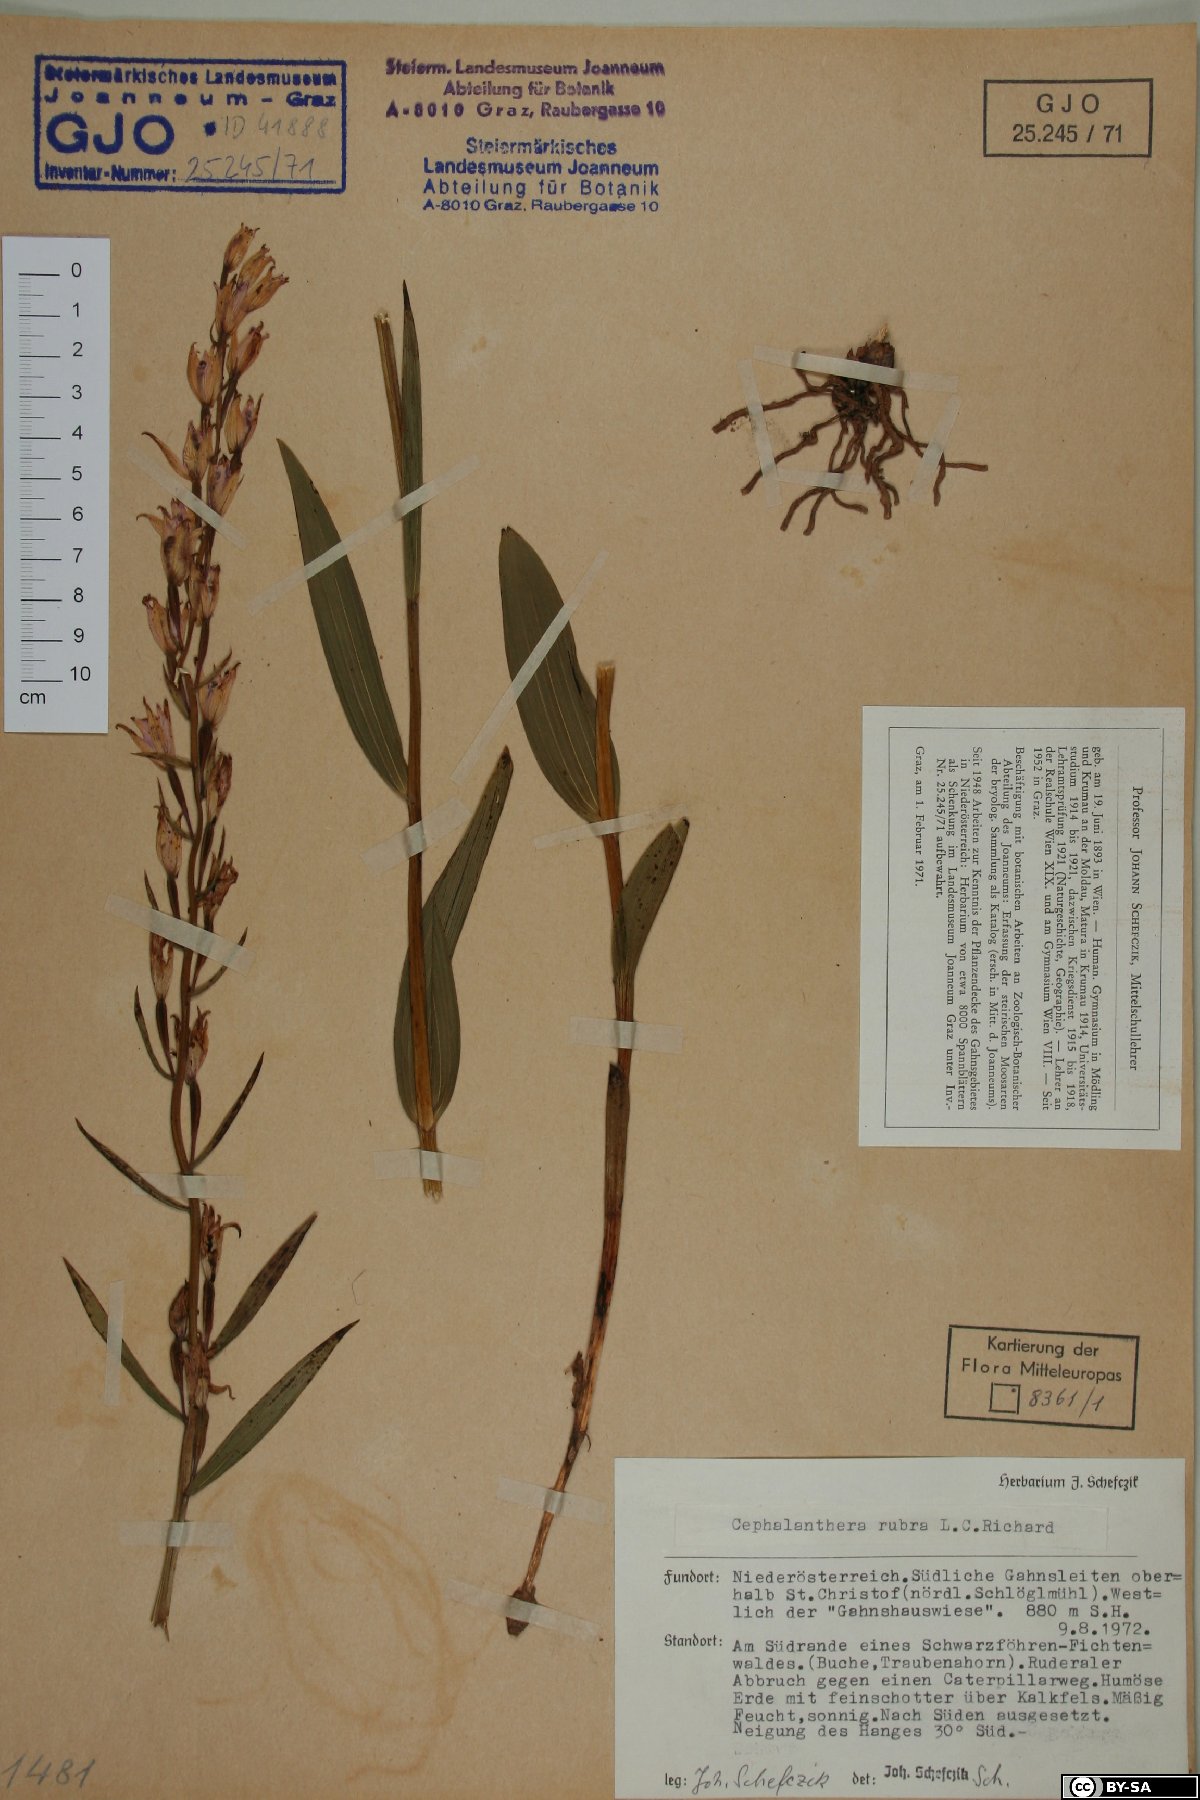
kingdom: Plantae
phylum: Tracheophyta
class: Liliopsida
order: Asparagales
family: Orchidaceae
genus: Cephalanthera
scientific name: Cephalanthera rubra
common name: Red helleborine
